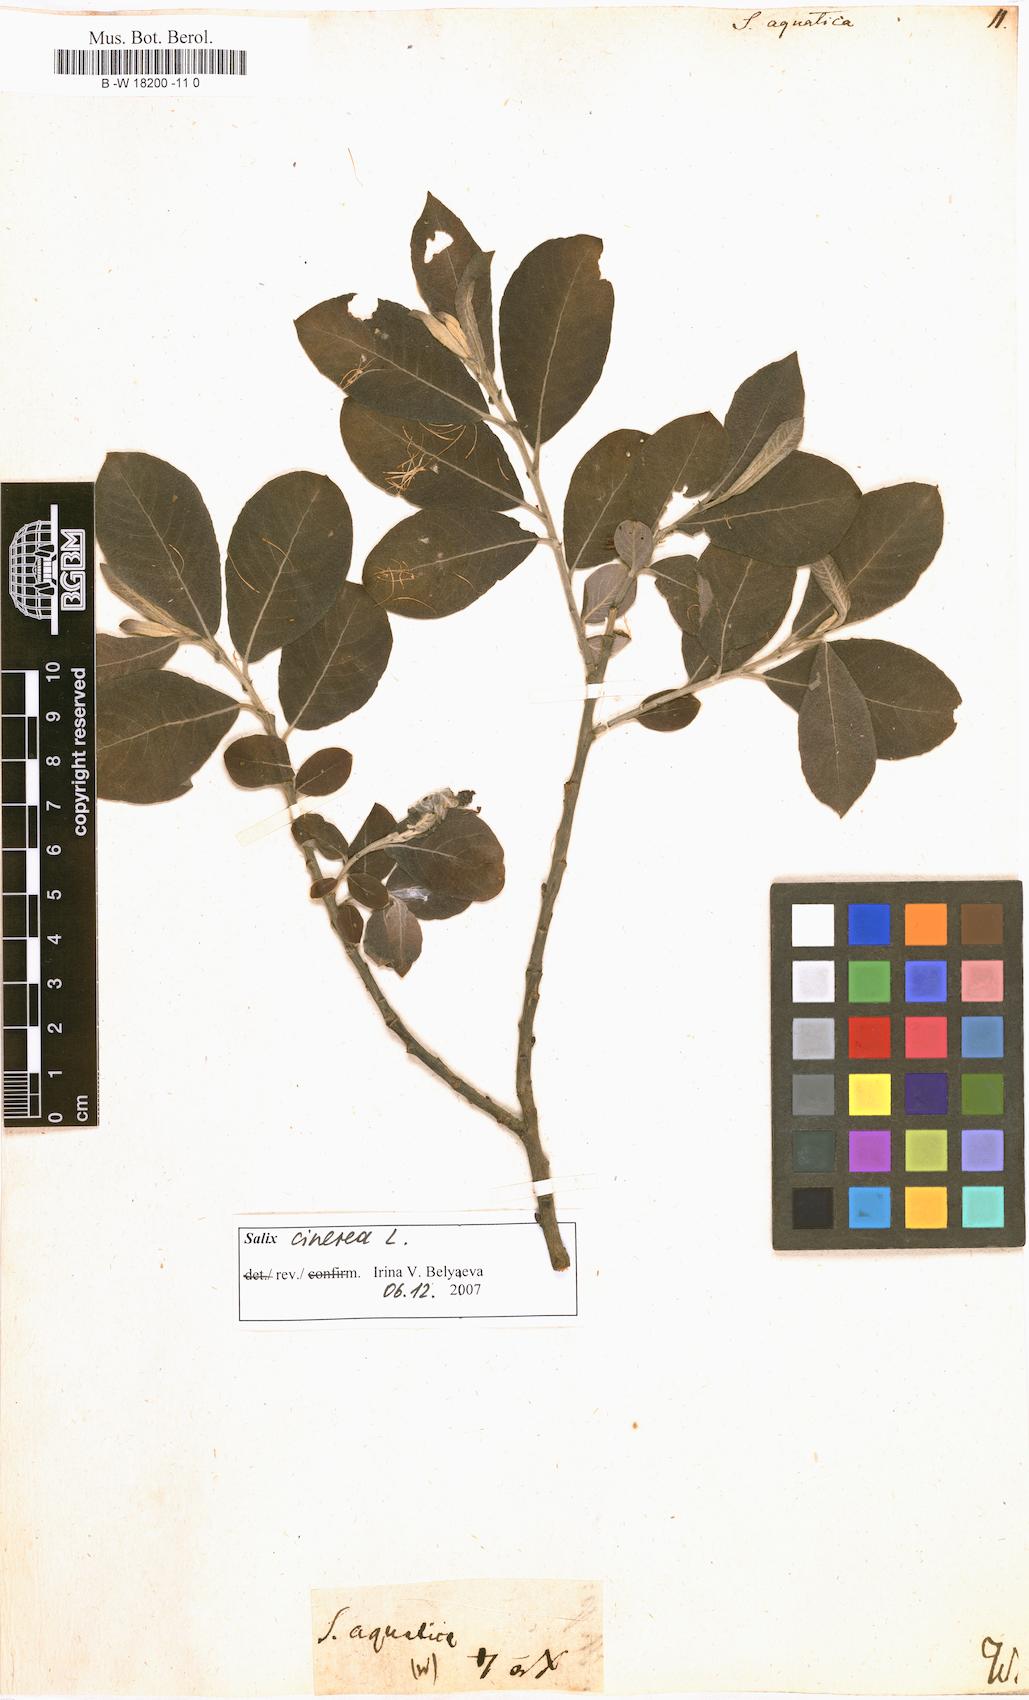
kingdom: Plantae
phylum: Tracheophyta
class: Magnoliopsida
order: Malpighiales
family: Salicaceae
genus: Salix
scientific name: Salix
